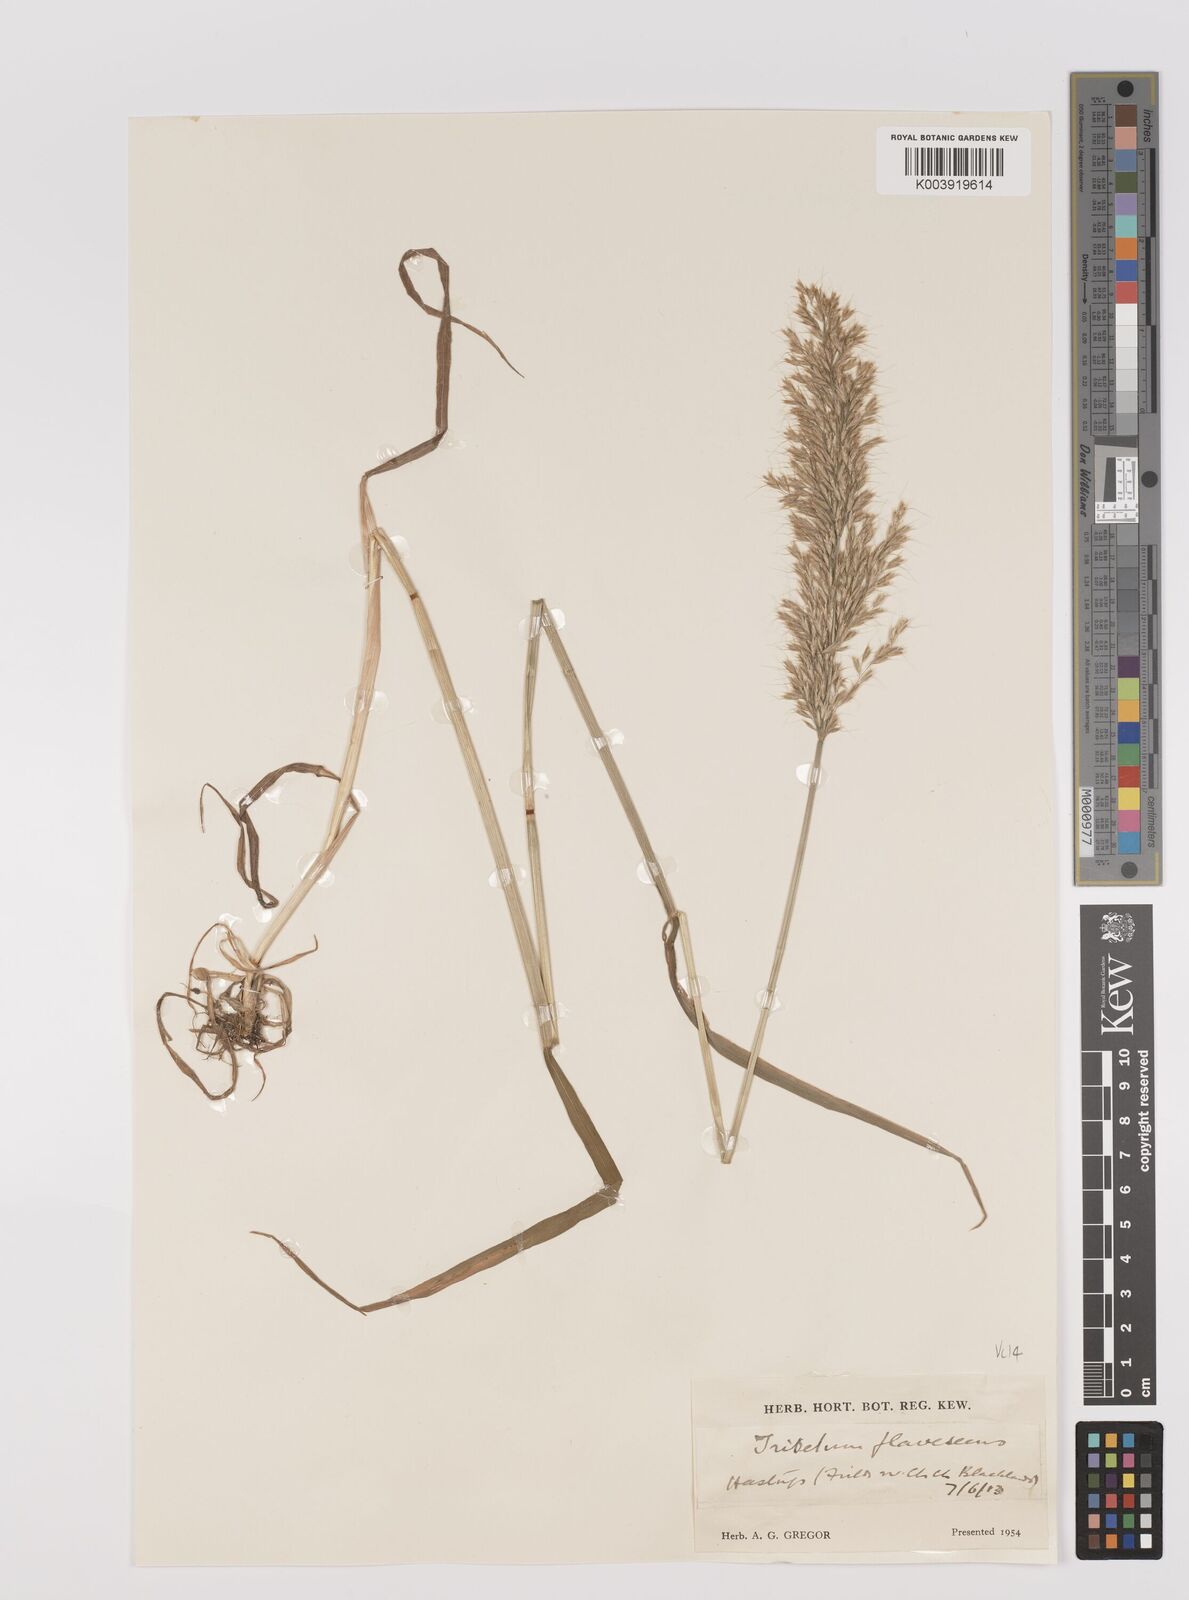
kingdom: Plantae
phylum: Tracheophyta
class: Liliopsida
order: Poales
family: Poaceae
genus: Trisetum
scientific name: Trisetum flavescens
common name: Yellow oat-grass
